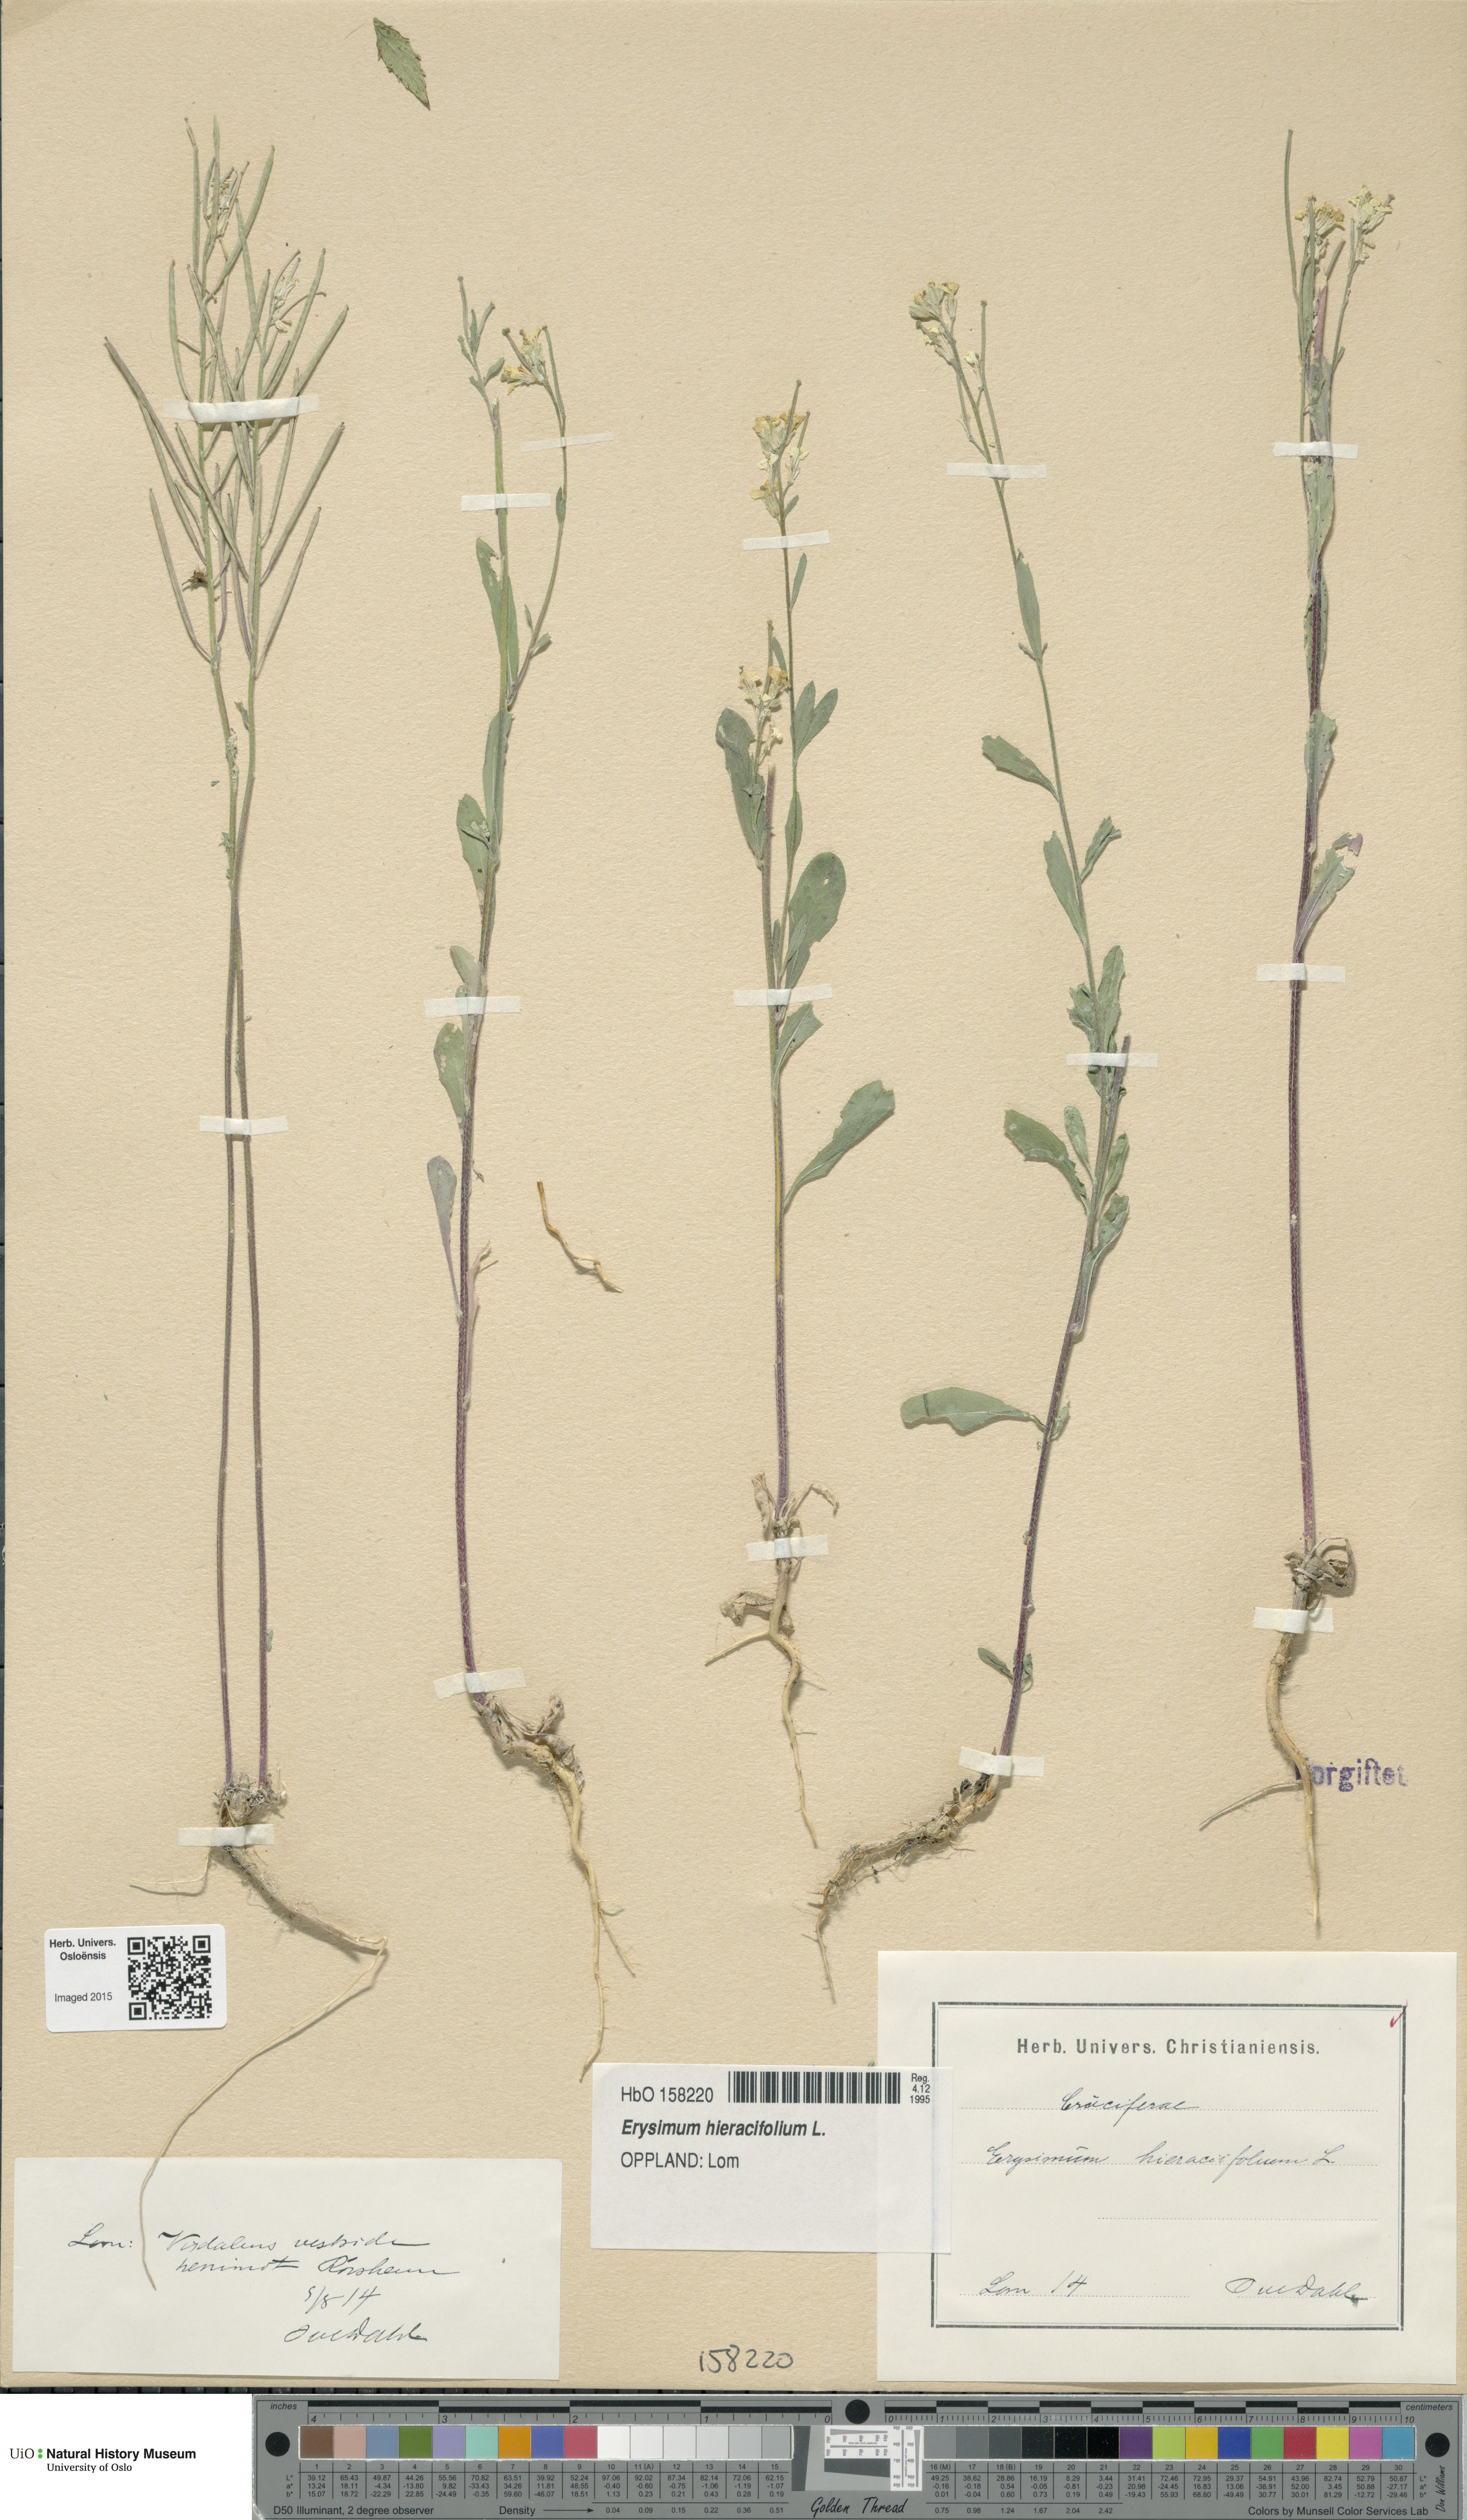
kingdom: Plantae
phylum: Tracheophyta
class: Magnoliopsida
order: Brassicales
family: Brassicaceae
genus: Erysimum
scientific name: Erysimum virgatum
